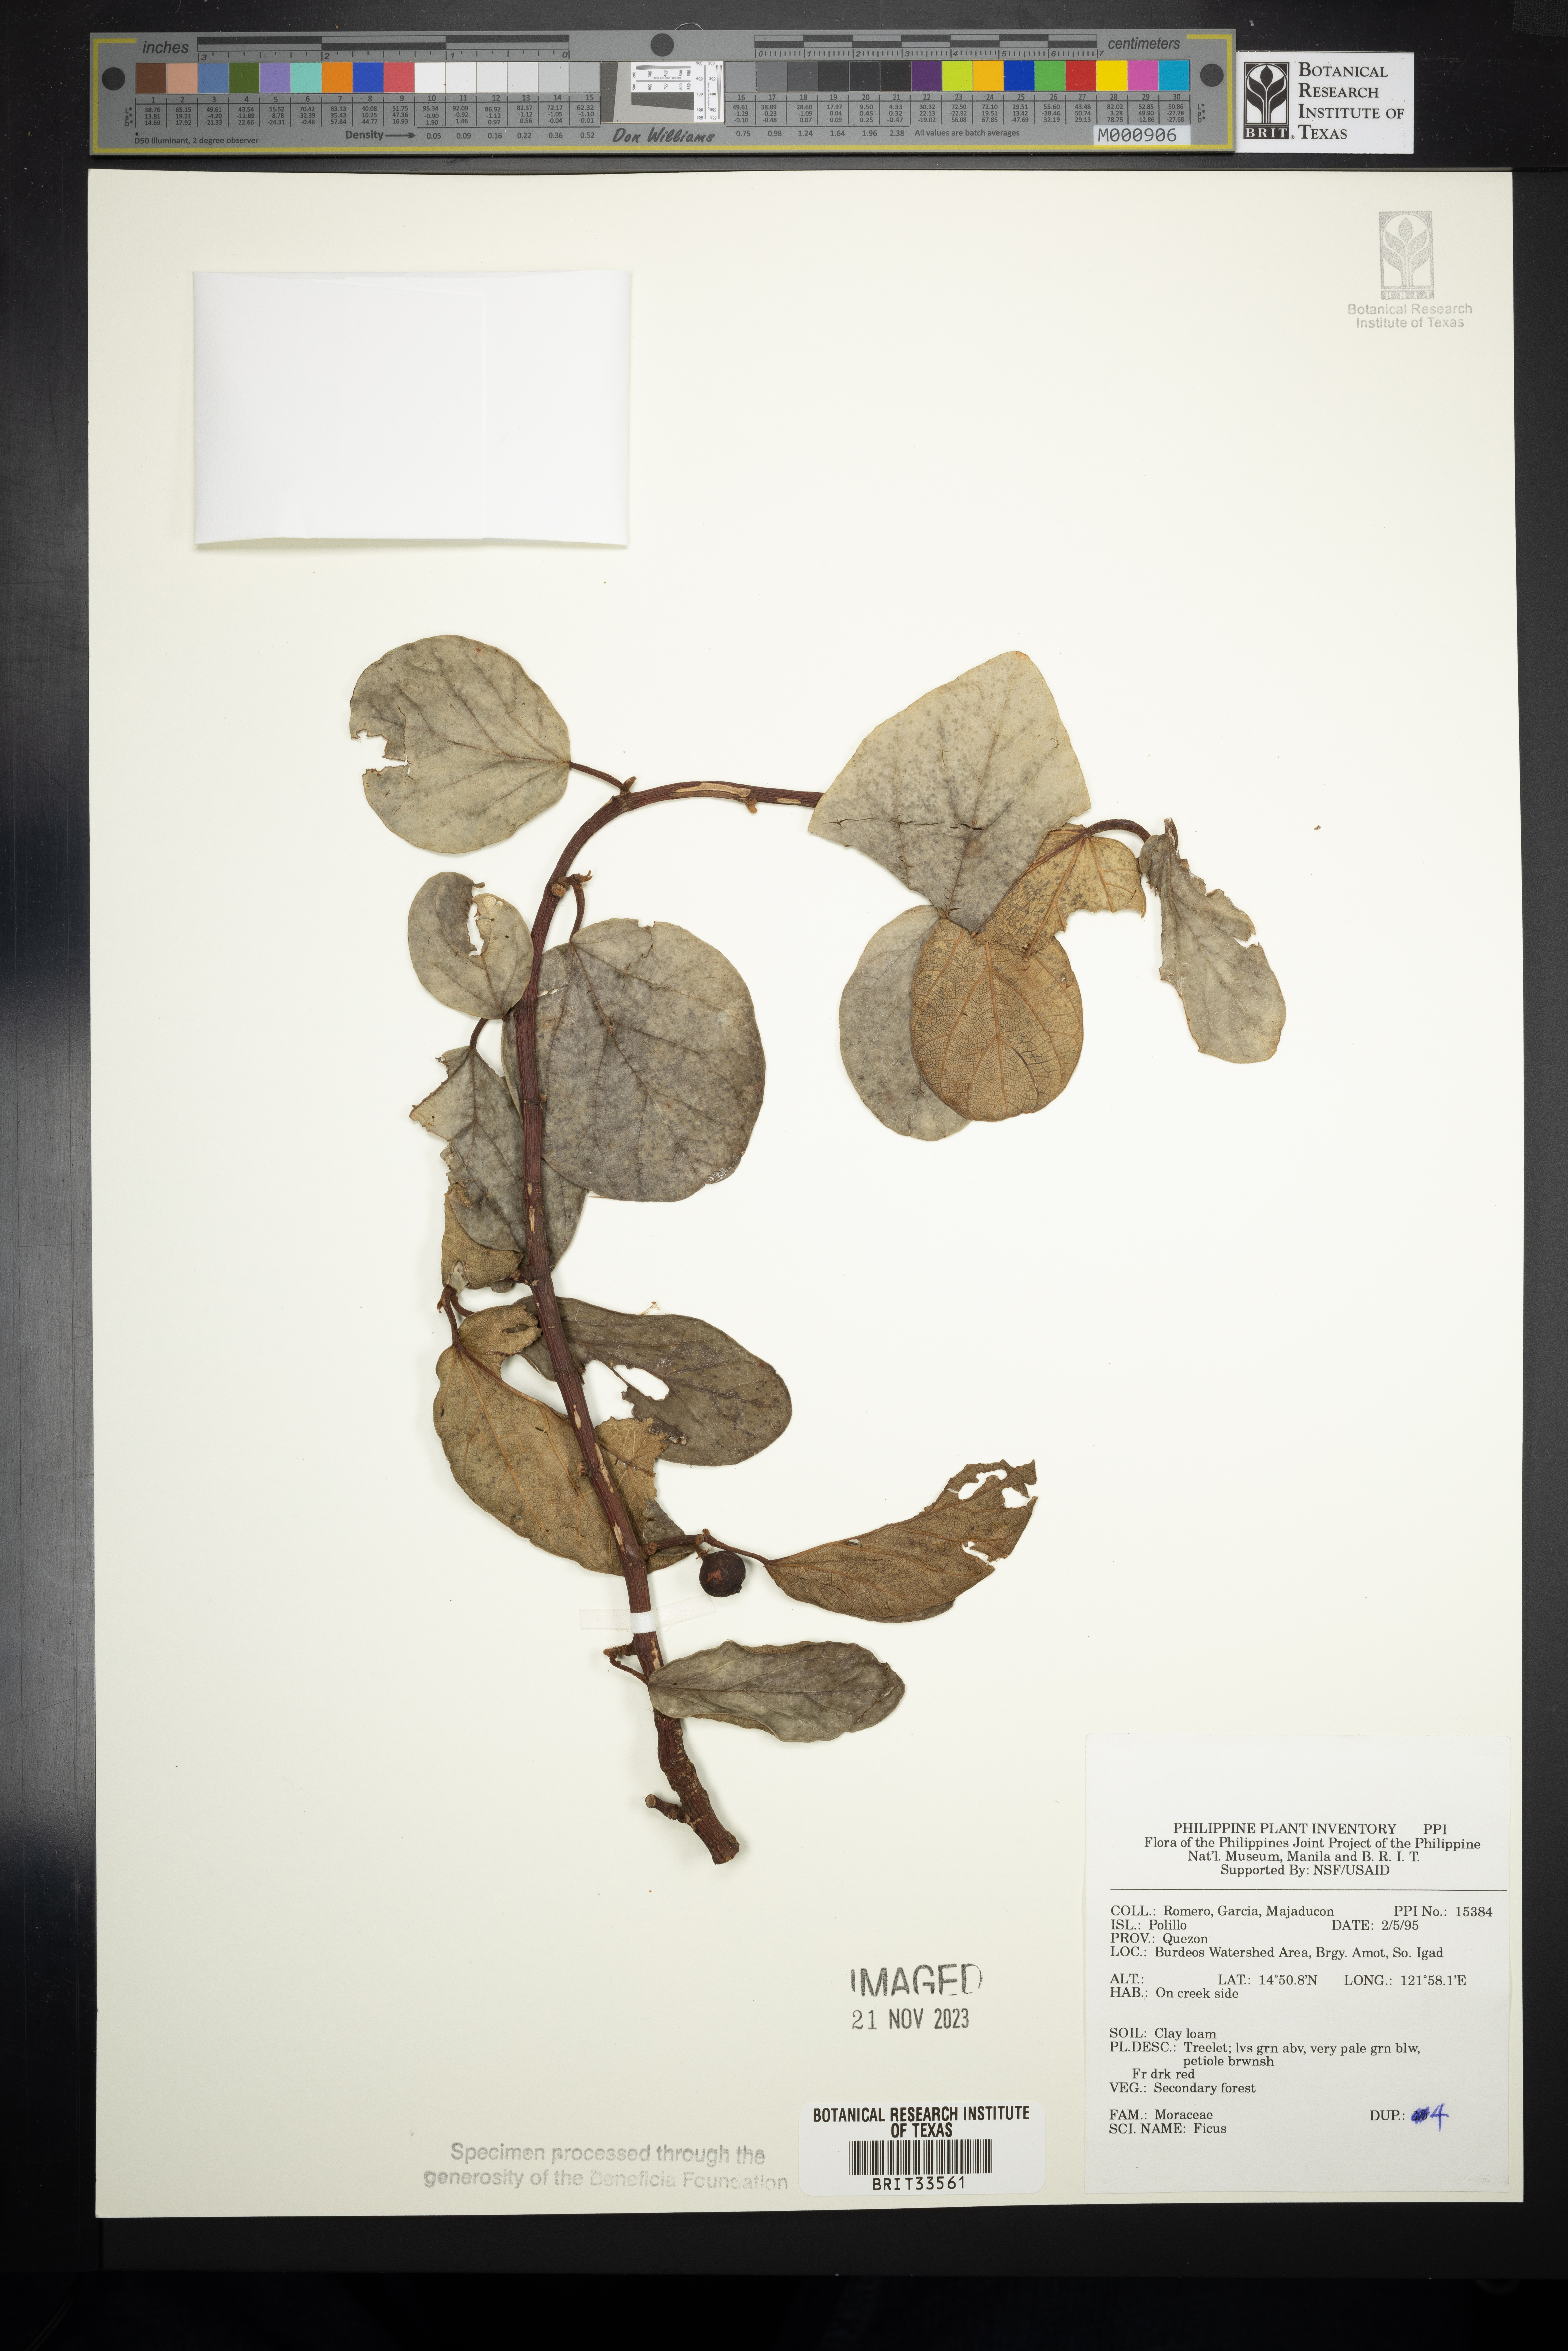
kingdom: Plantae
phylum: Tracheophyta
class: Magnoliopsida
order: Rosales
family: Moraceae
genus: Ficus
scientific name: Ficus
